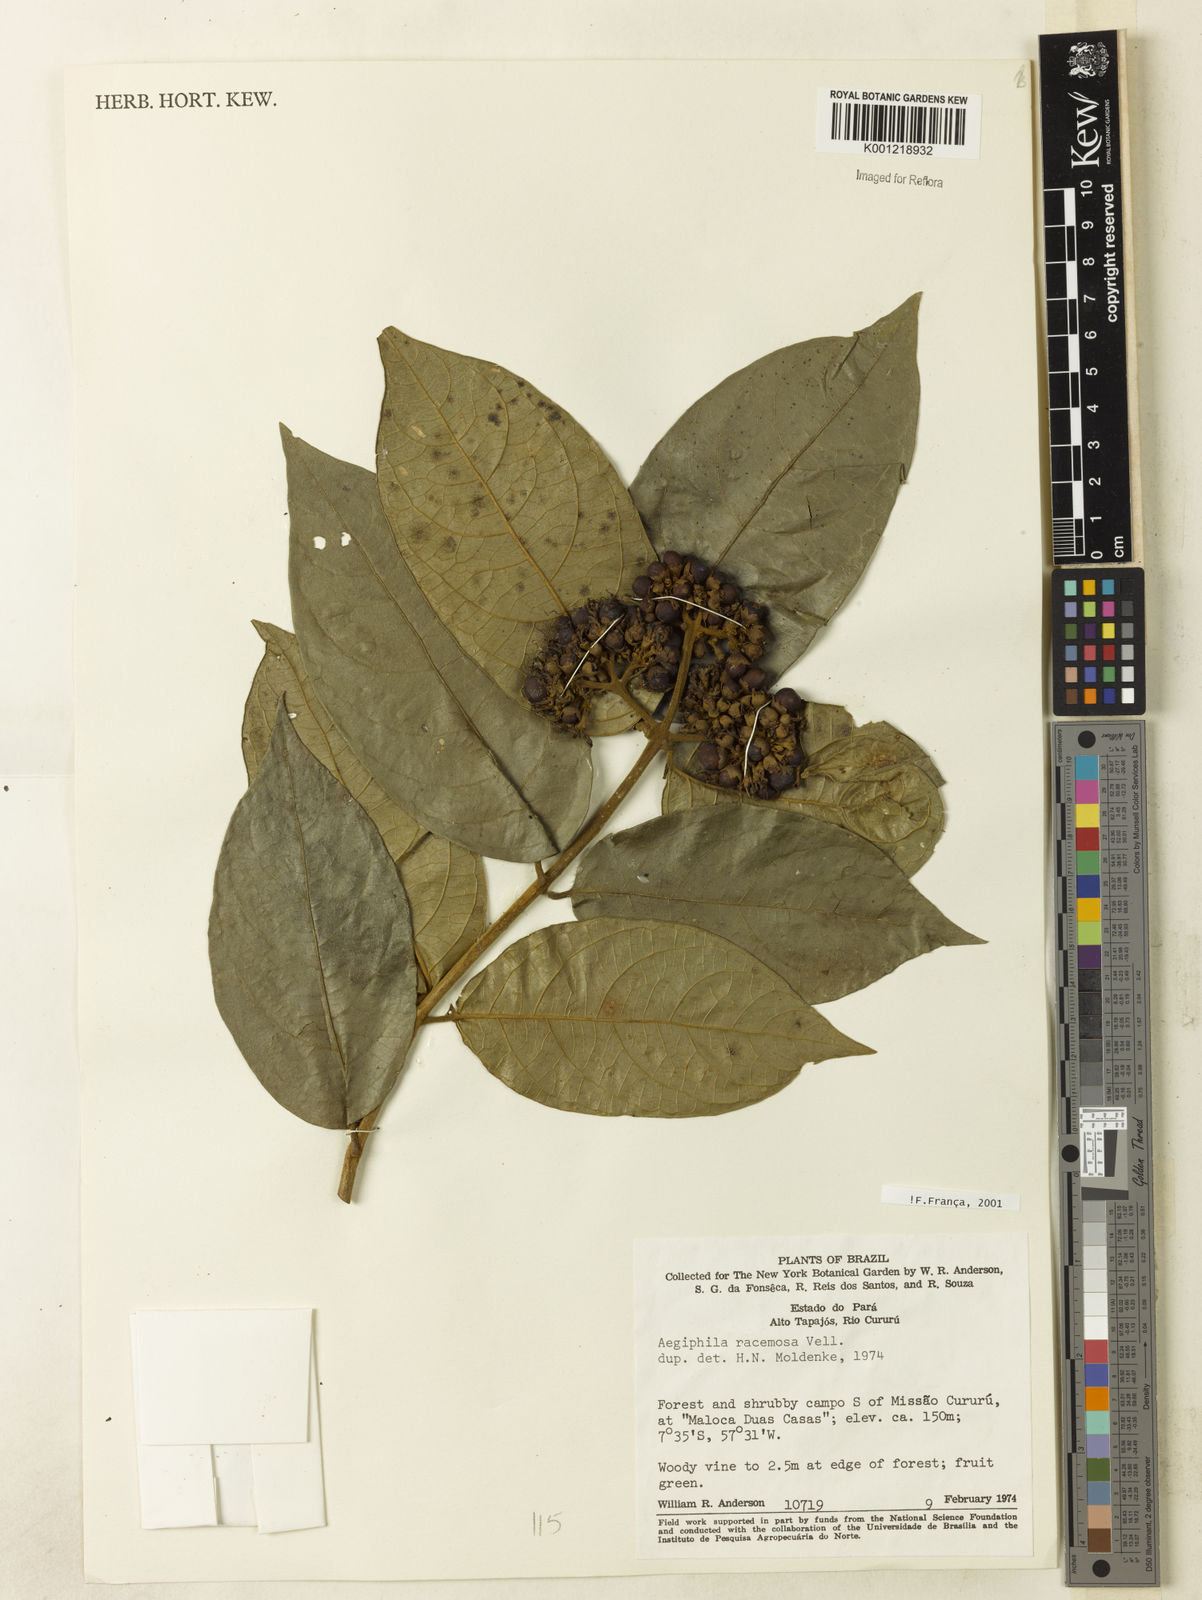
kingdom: Plantae
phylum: Tracheophyta
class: Magnoliopsida
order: Lamiales
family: Lamiaceae
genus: Aegiphila
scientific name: Aegiphila racemosa
